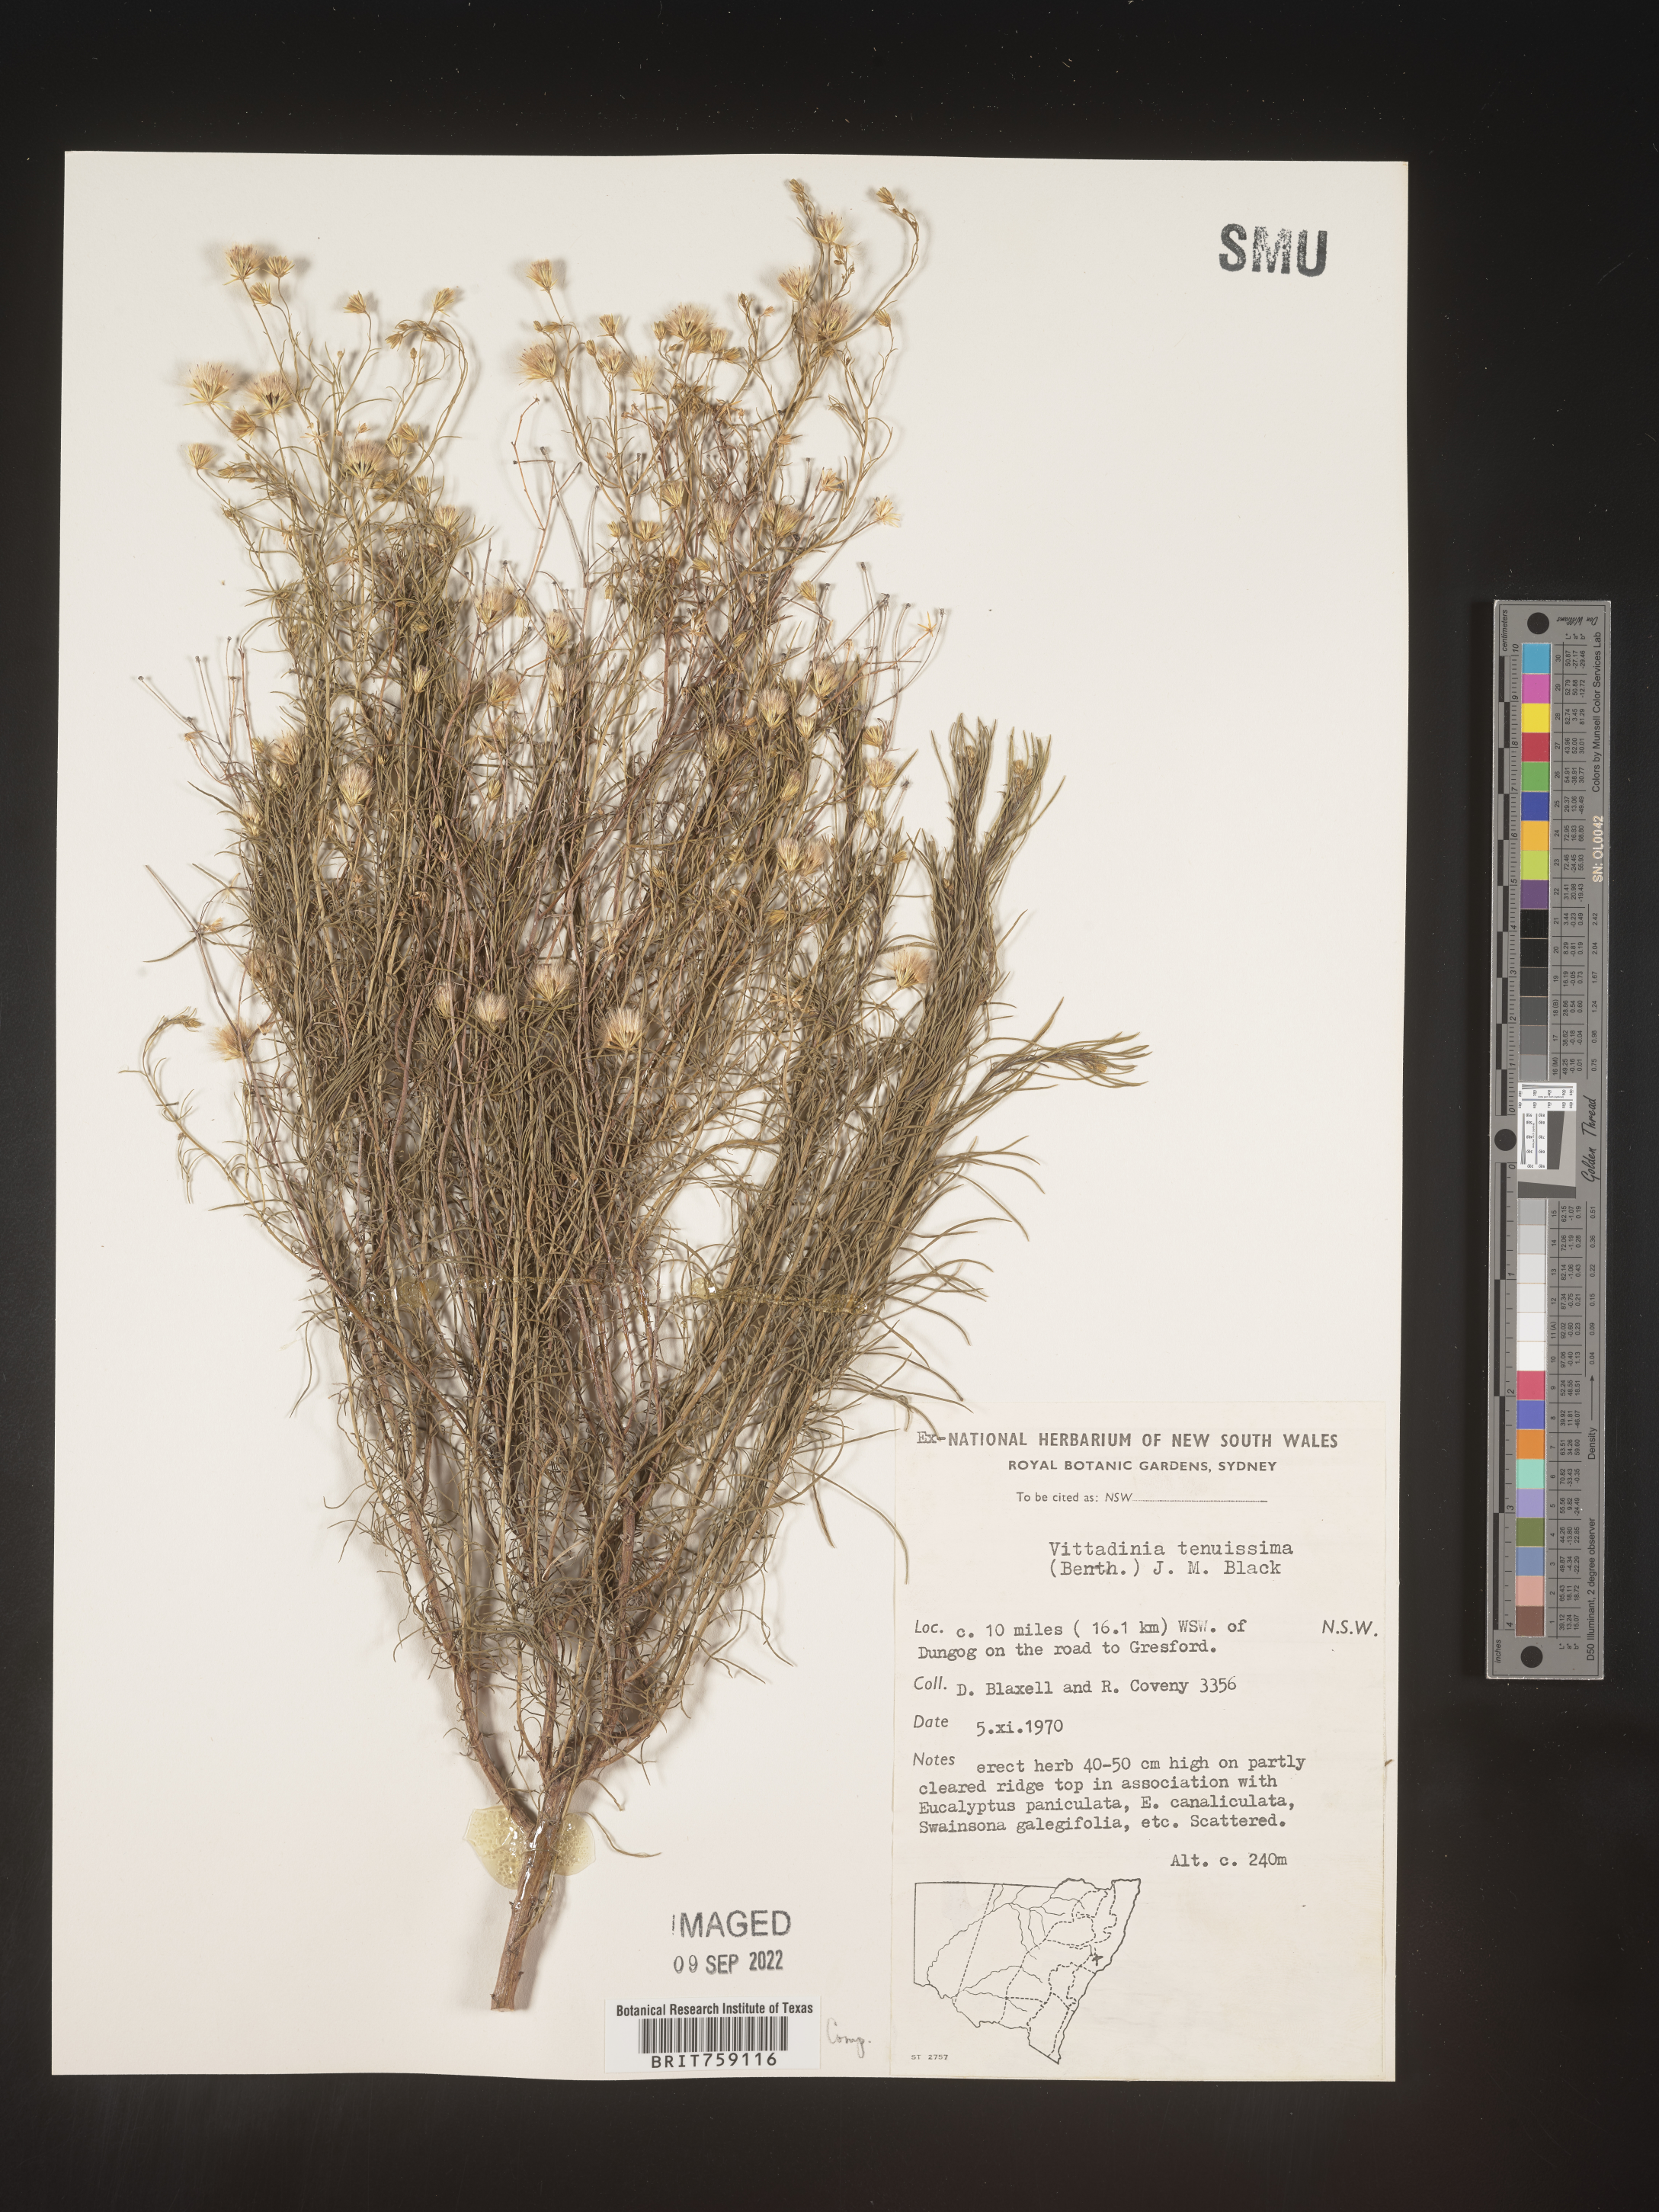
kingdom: Plantae
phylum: Tracheophyta
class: Magnoliopsida
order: Asterales
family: Asteraceae
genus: Vittadinia
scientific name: Vittadinia
